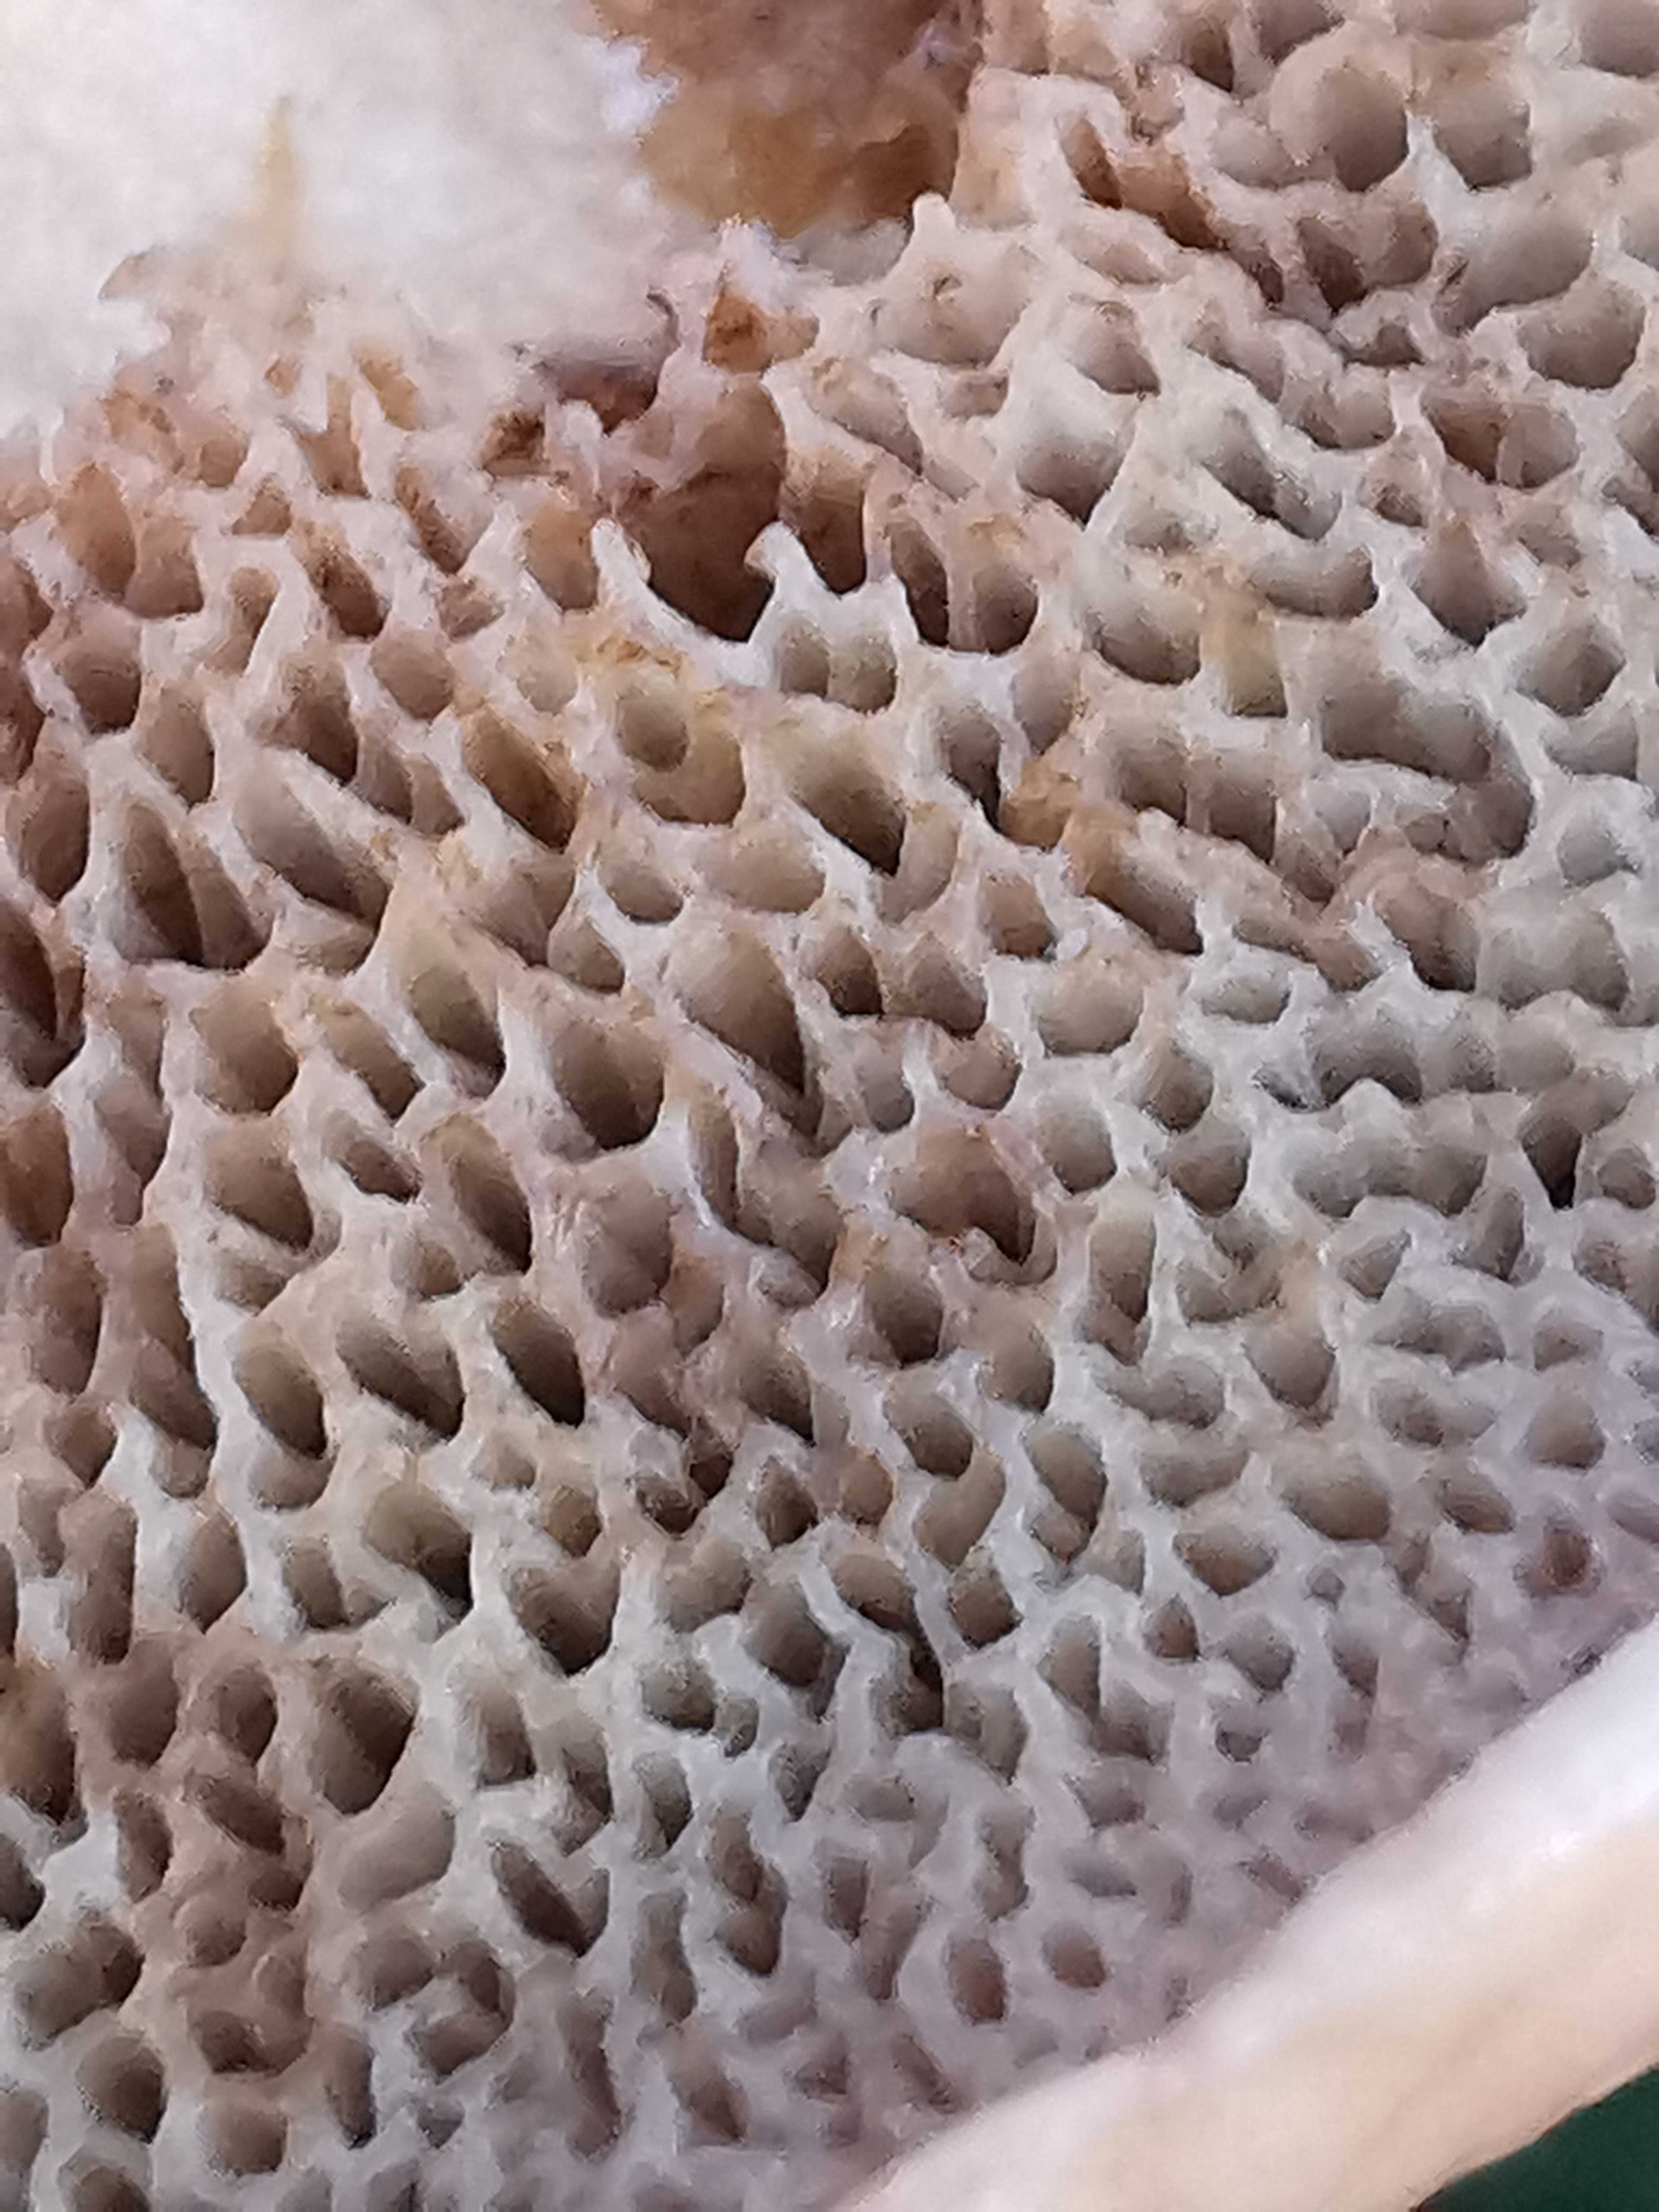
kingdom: Fungi
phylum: Basidiomycota
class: Agaricomycetes
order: Boletales
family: Suillaceae
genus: Suillus
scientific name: Suillus bovinus
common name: grovporet slimrørhat
